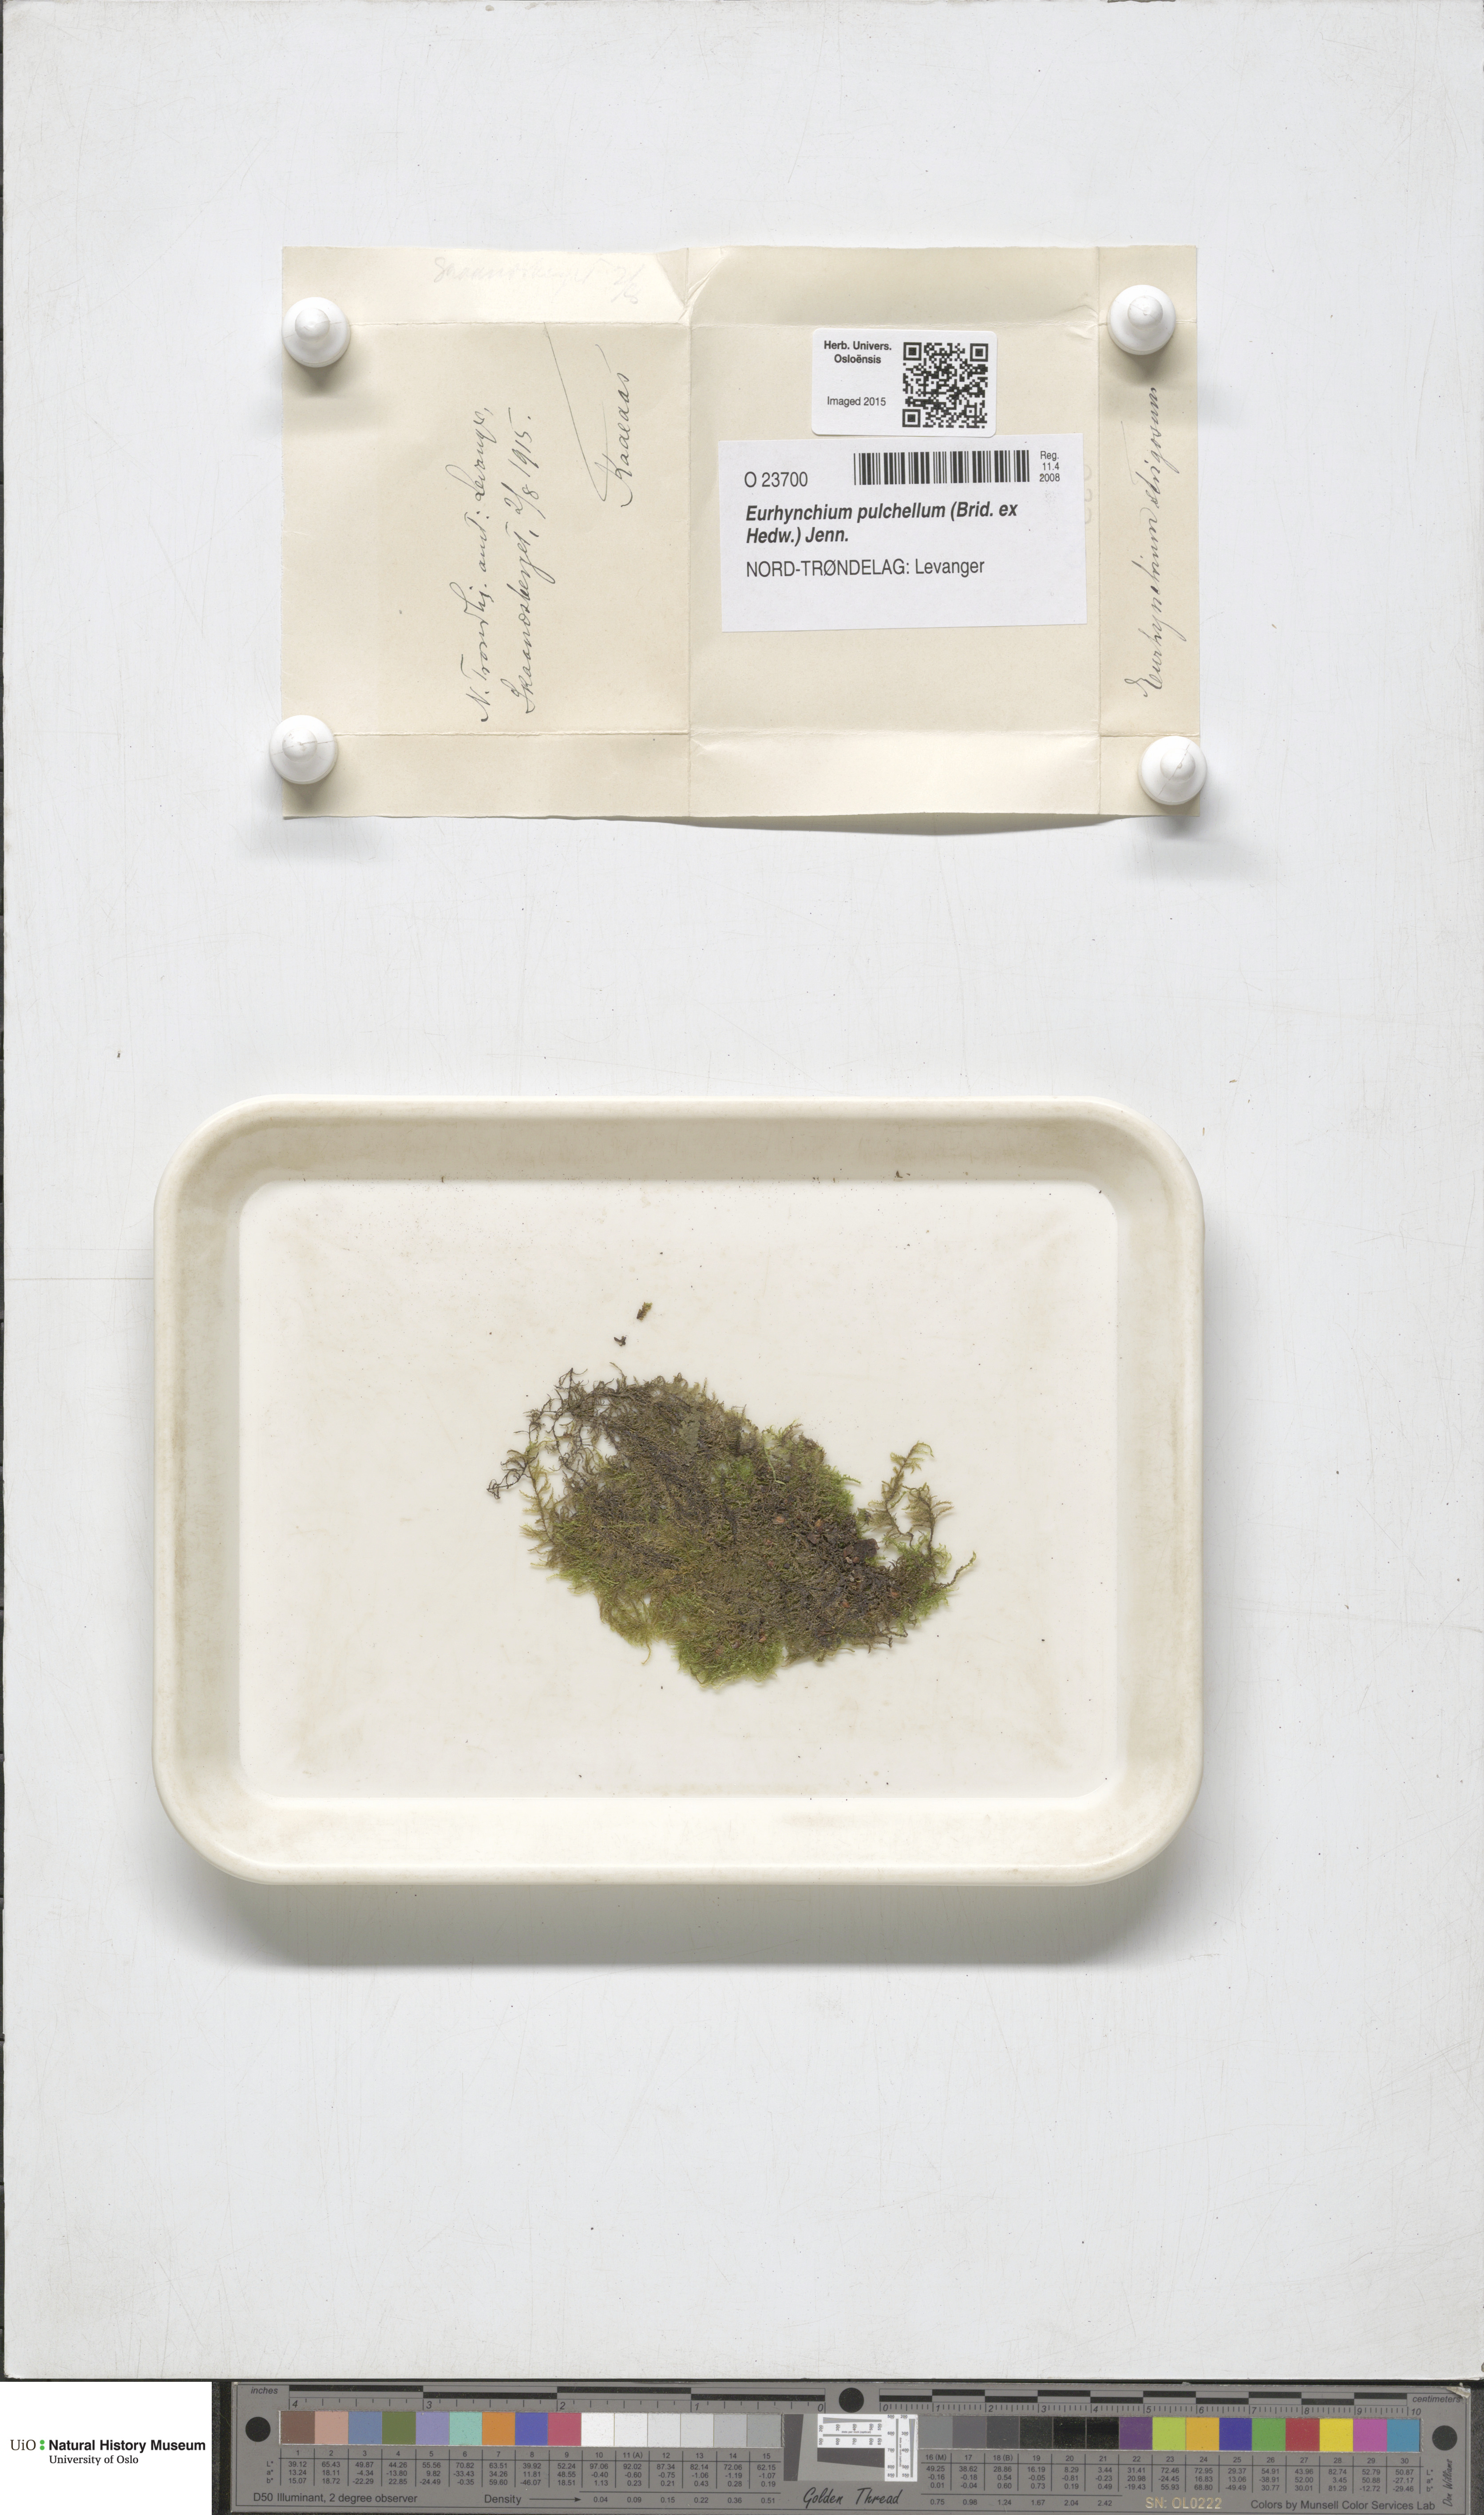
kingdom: Plantae
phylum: Bryophyta
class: Bryopsida
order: Hypnales
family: Brachytheciaceae
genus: Eurhynchiastrum
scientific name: Eurhynchiastrum pulchellum
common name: Elegant beaked moss
